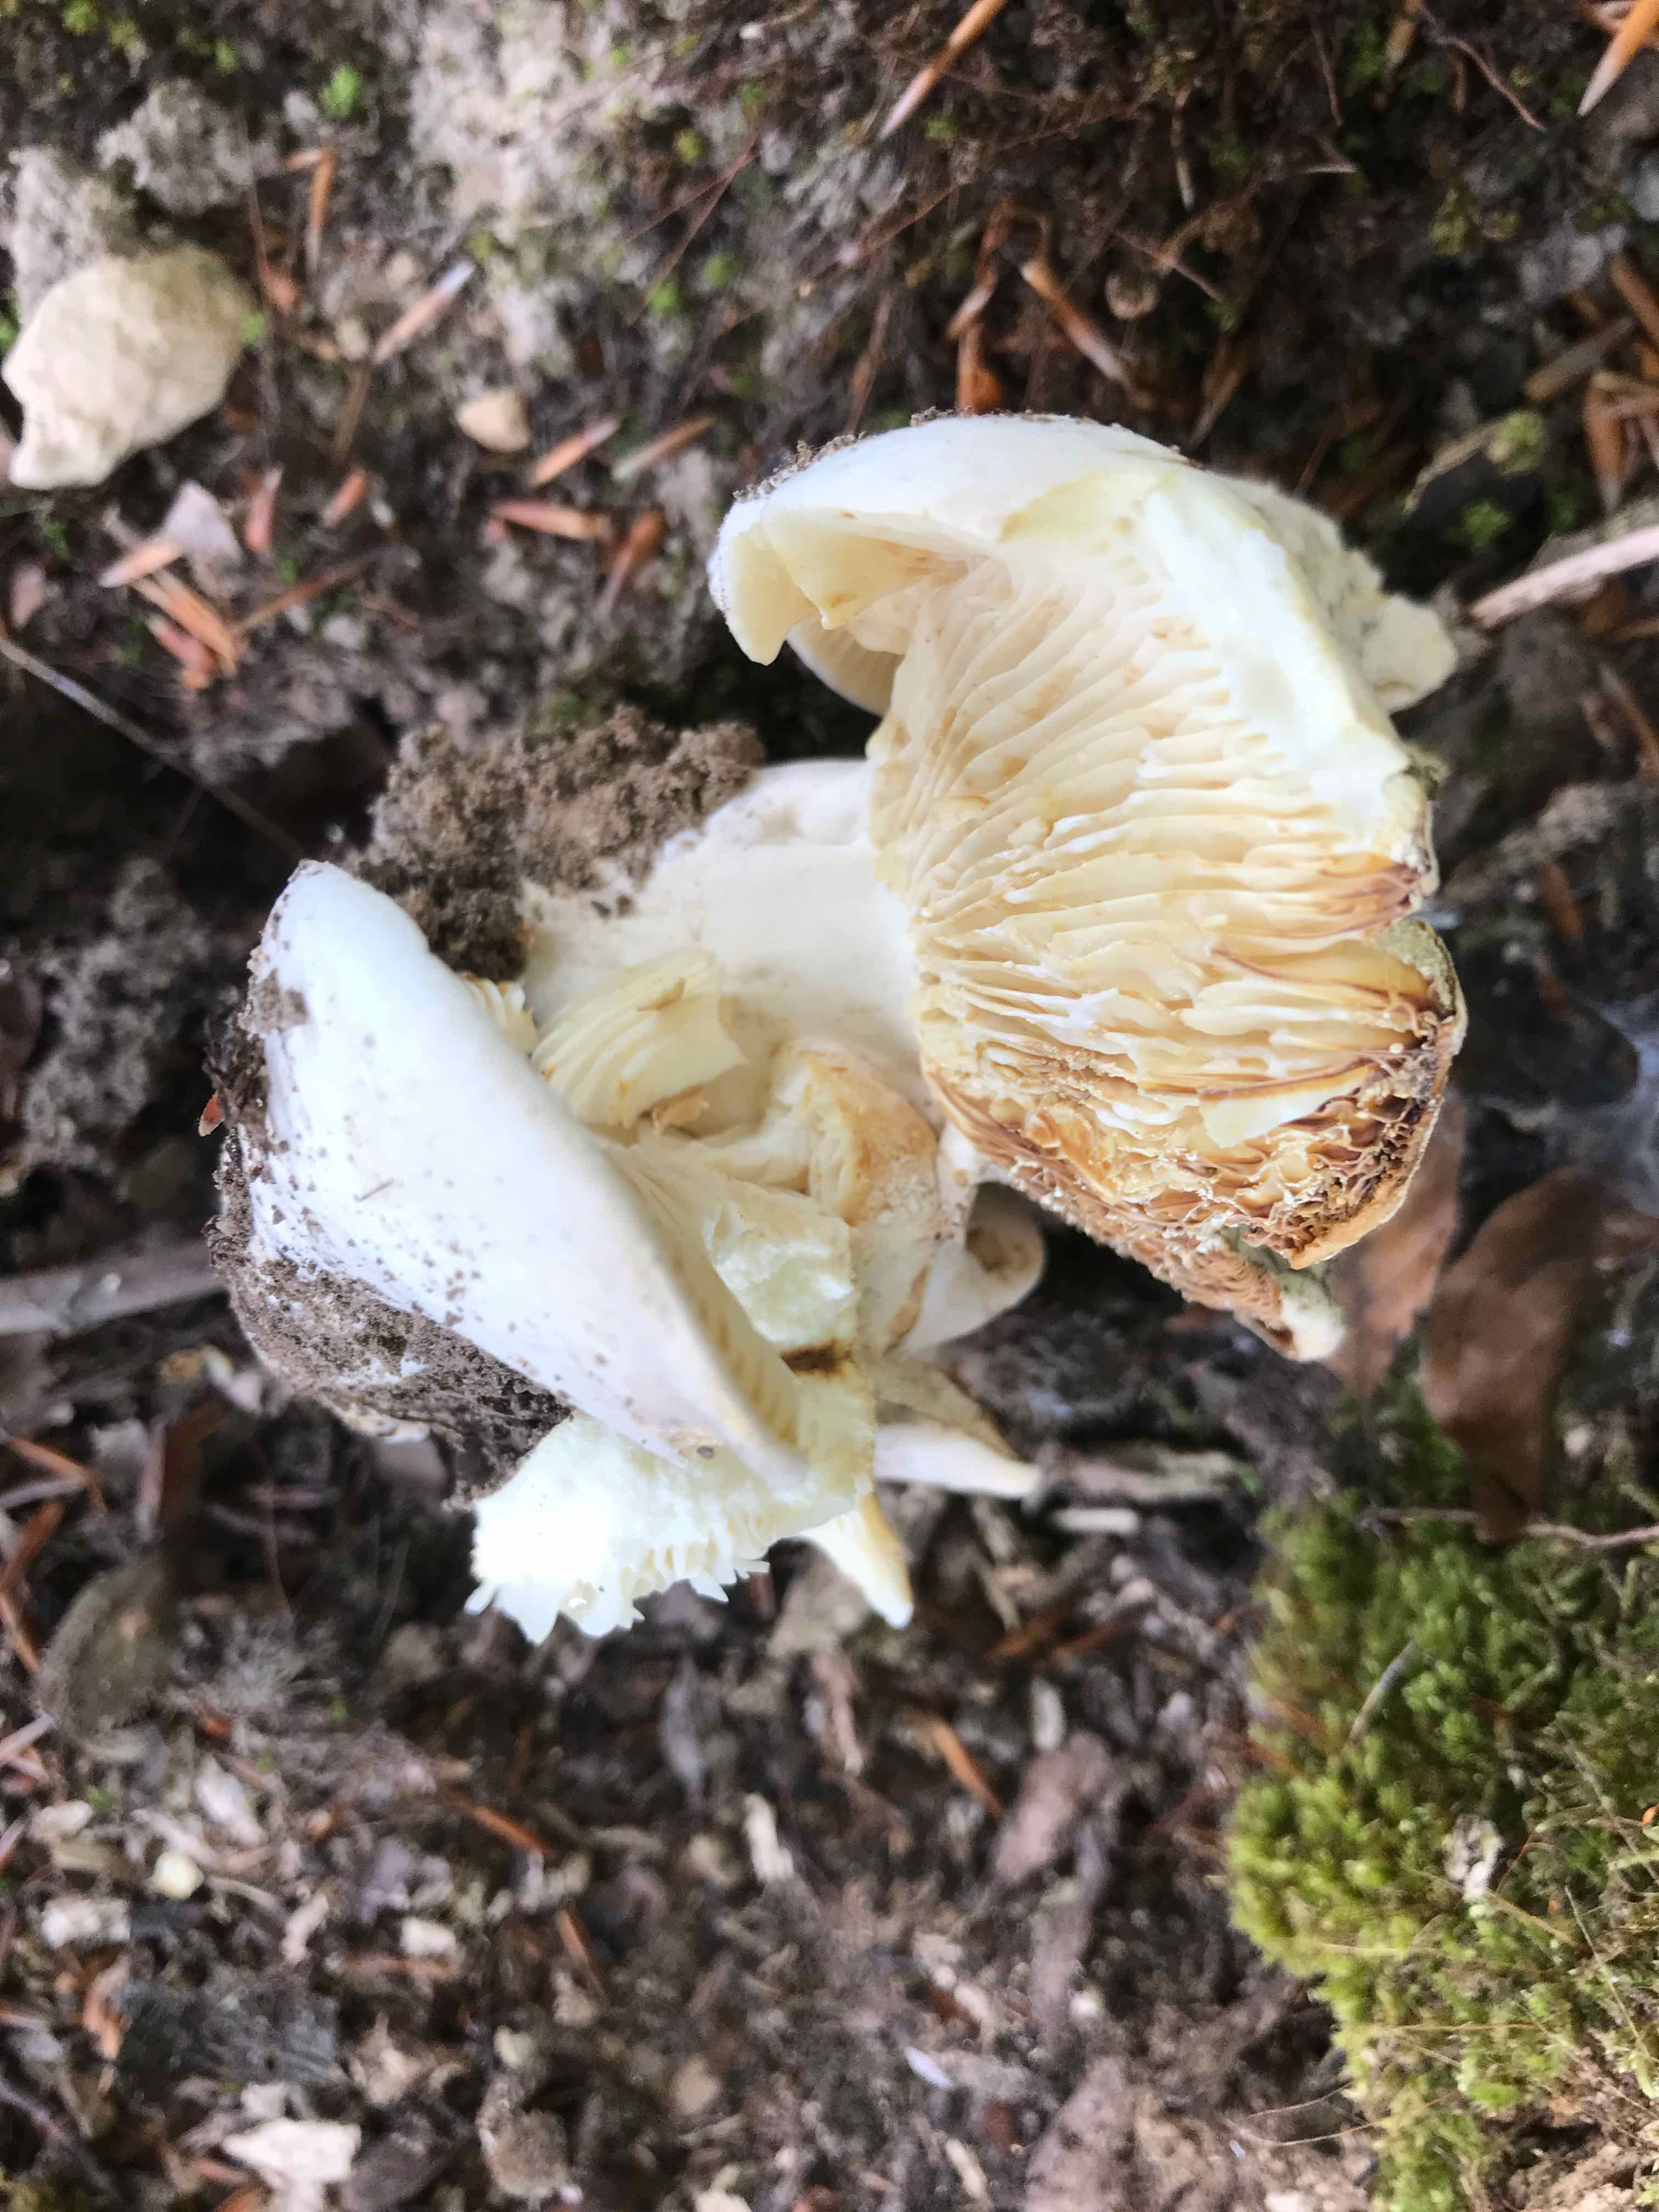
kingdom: Fungi
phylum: Basidiomycota
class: Agaricomycetes
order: Russulales
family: Russulaceae
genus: Russula
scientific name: Russula delica
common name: almindelig tragt-skørhat
